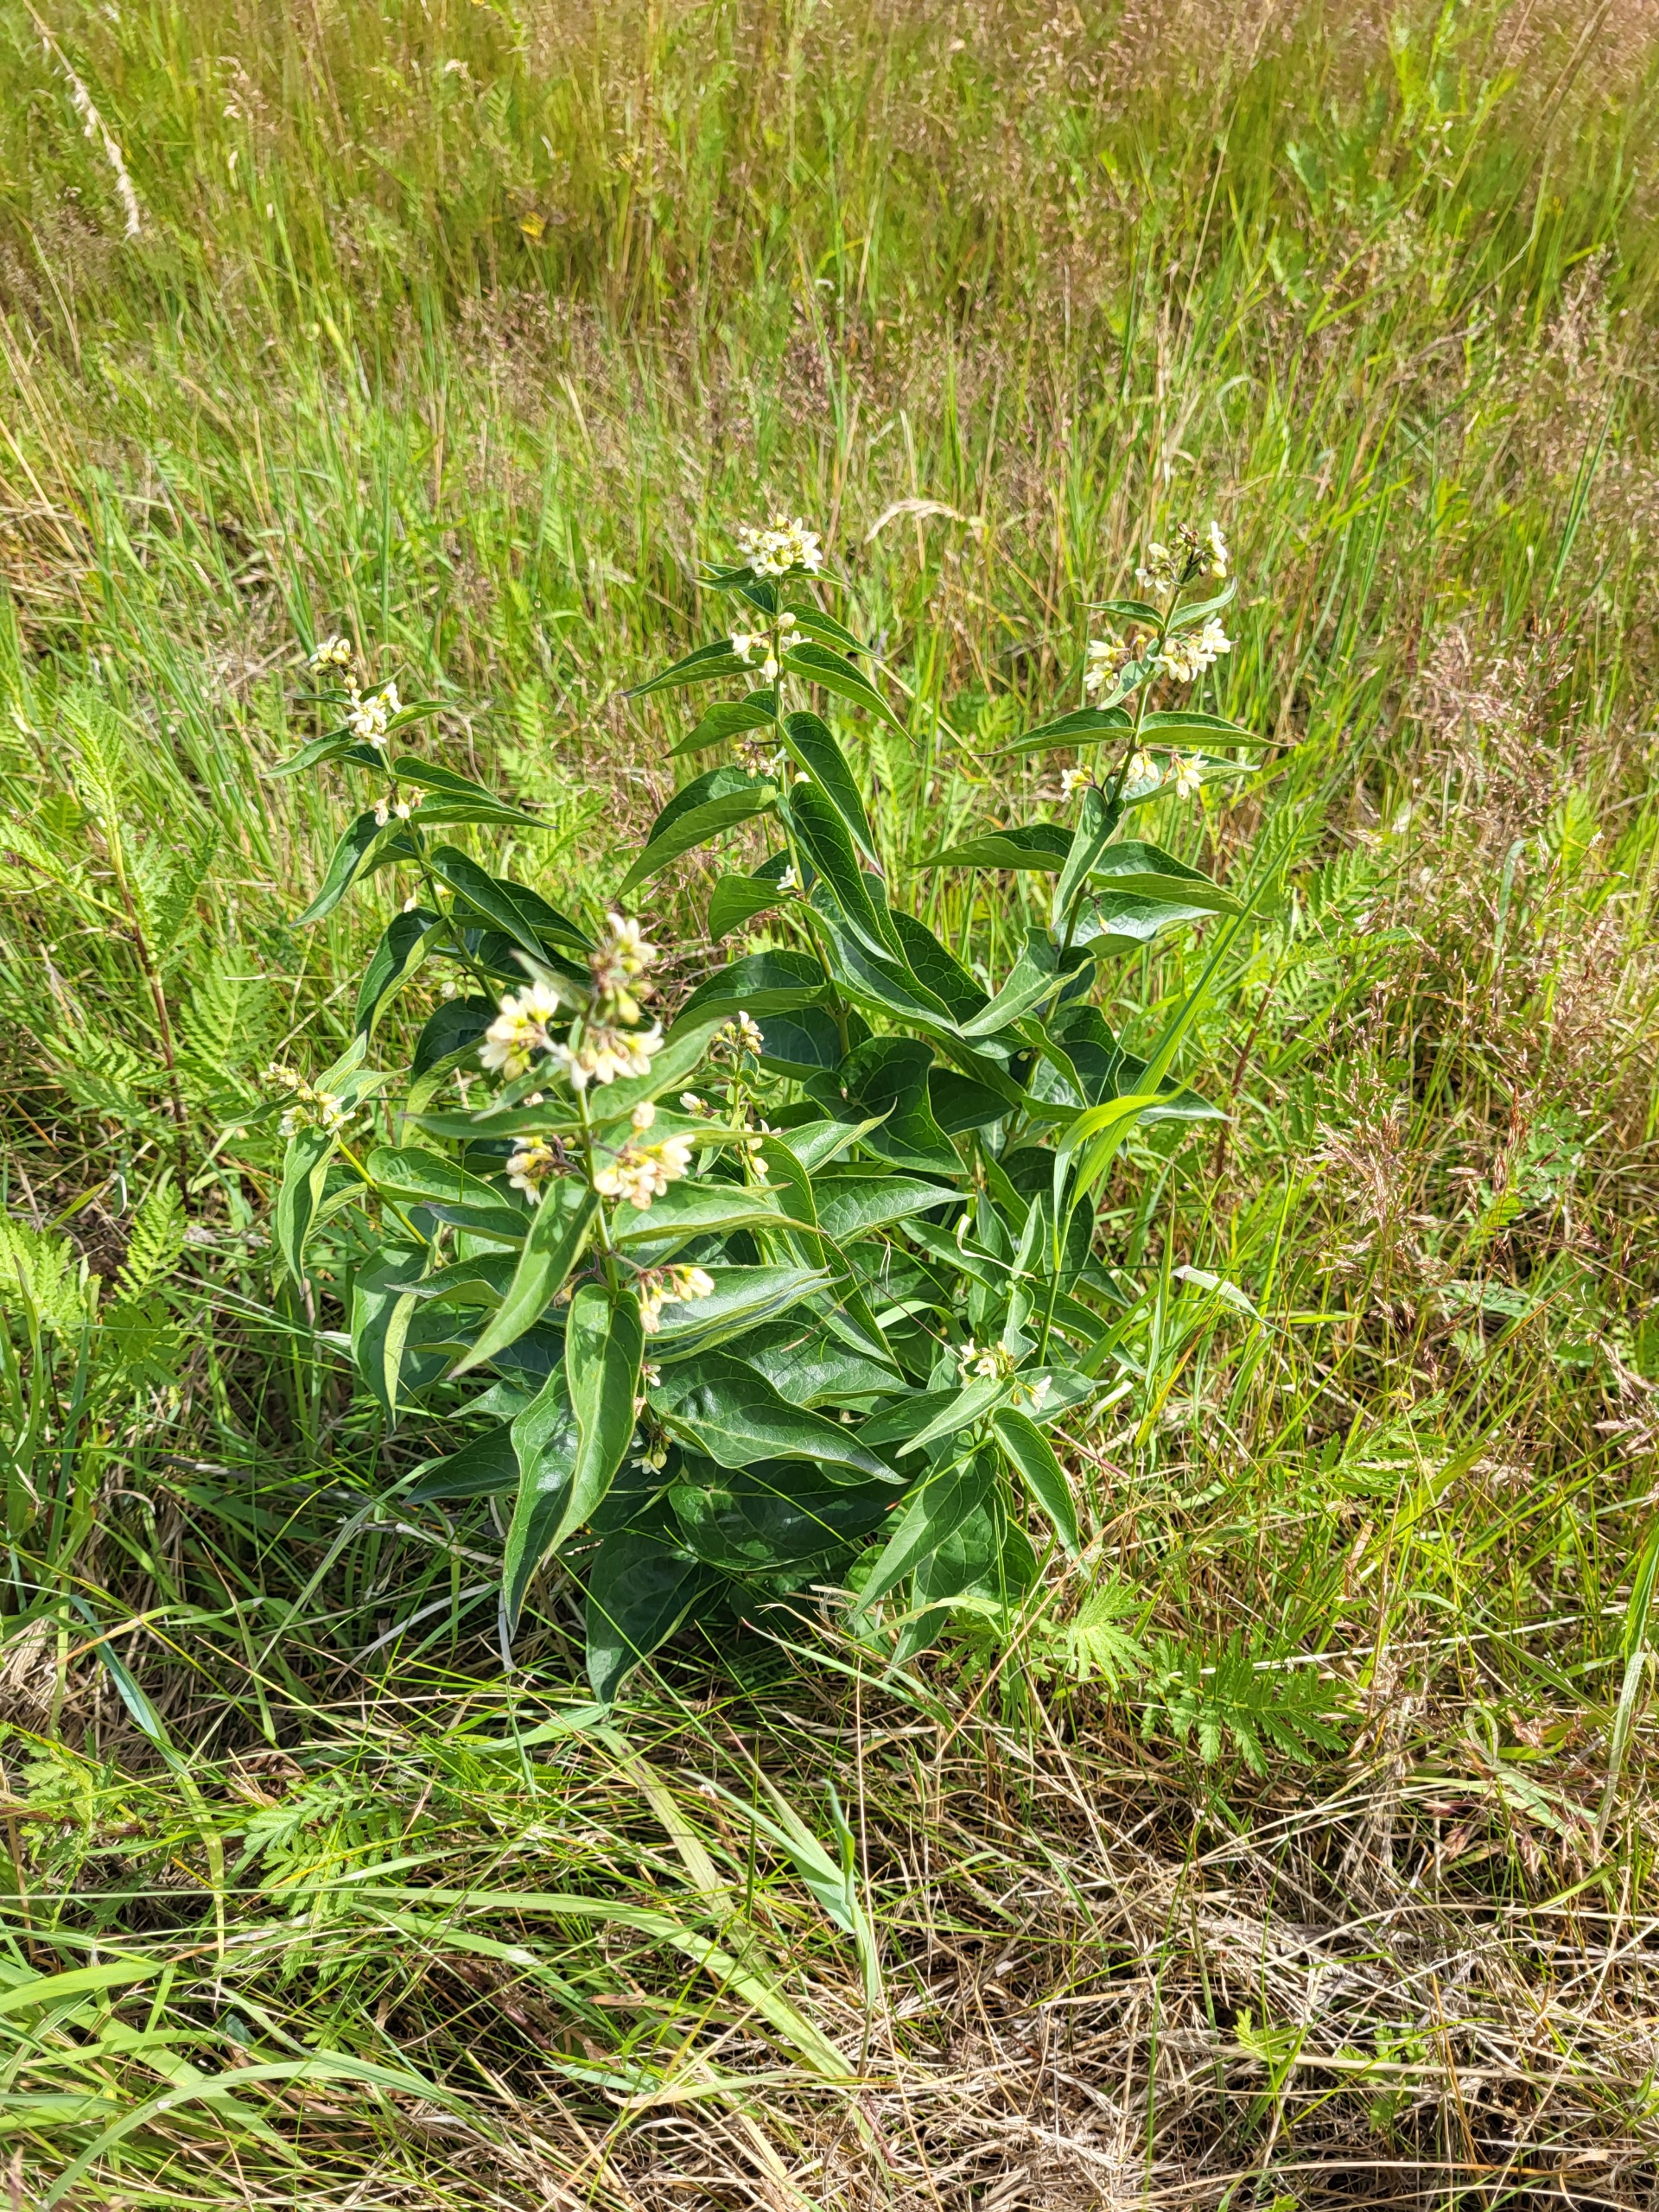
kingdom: Plantae
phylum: Tracheophyta
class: Magnoliopsida
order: Gentianales
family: Apocynaceae
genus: Vincetoxicum
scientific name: Vincetoxicum hirundinaria
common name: Svalerod
